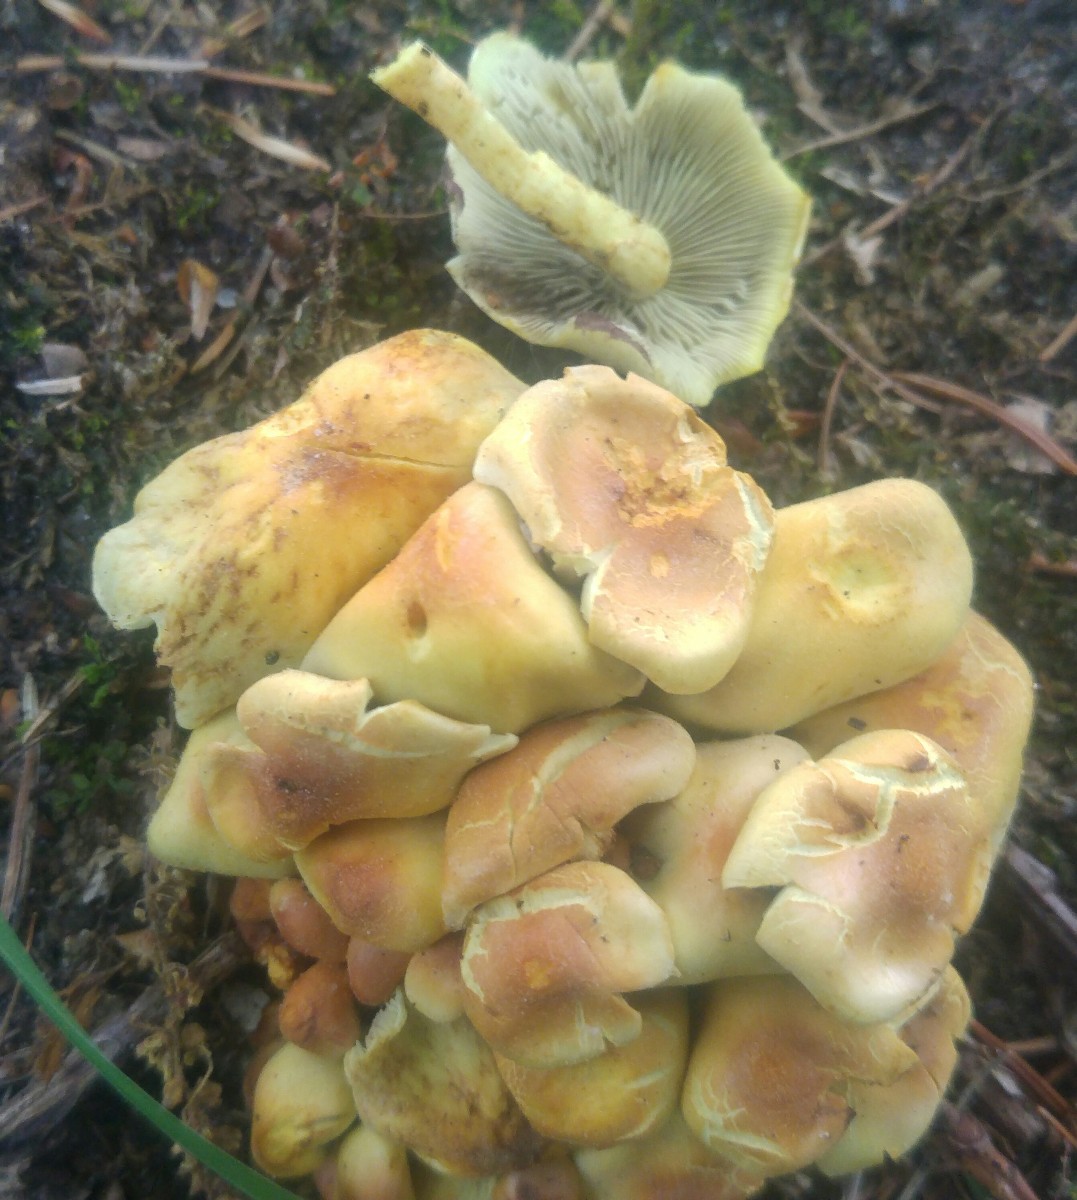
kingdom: Fungi
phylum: Basidiomycota
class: Agaricomycetes
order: Agaricales
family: Strophariaceae
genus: Hypholoma
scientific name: Hypholoma fasciculare
